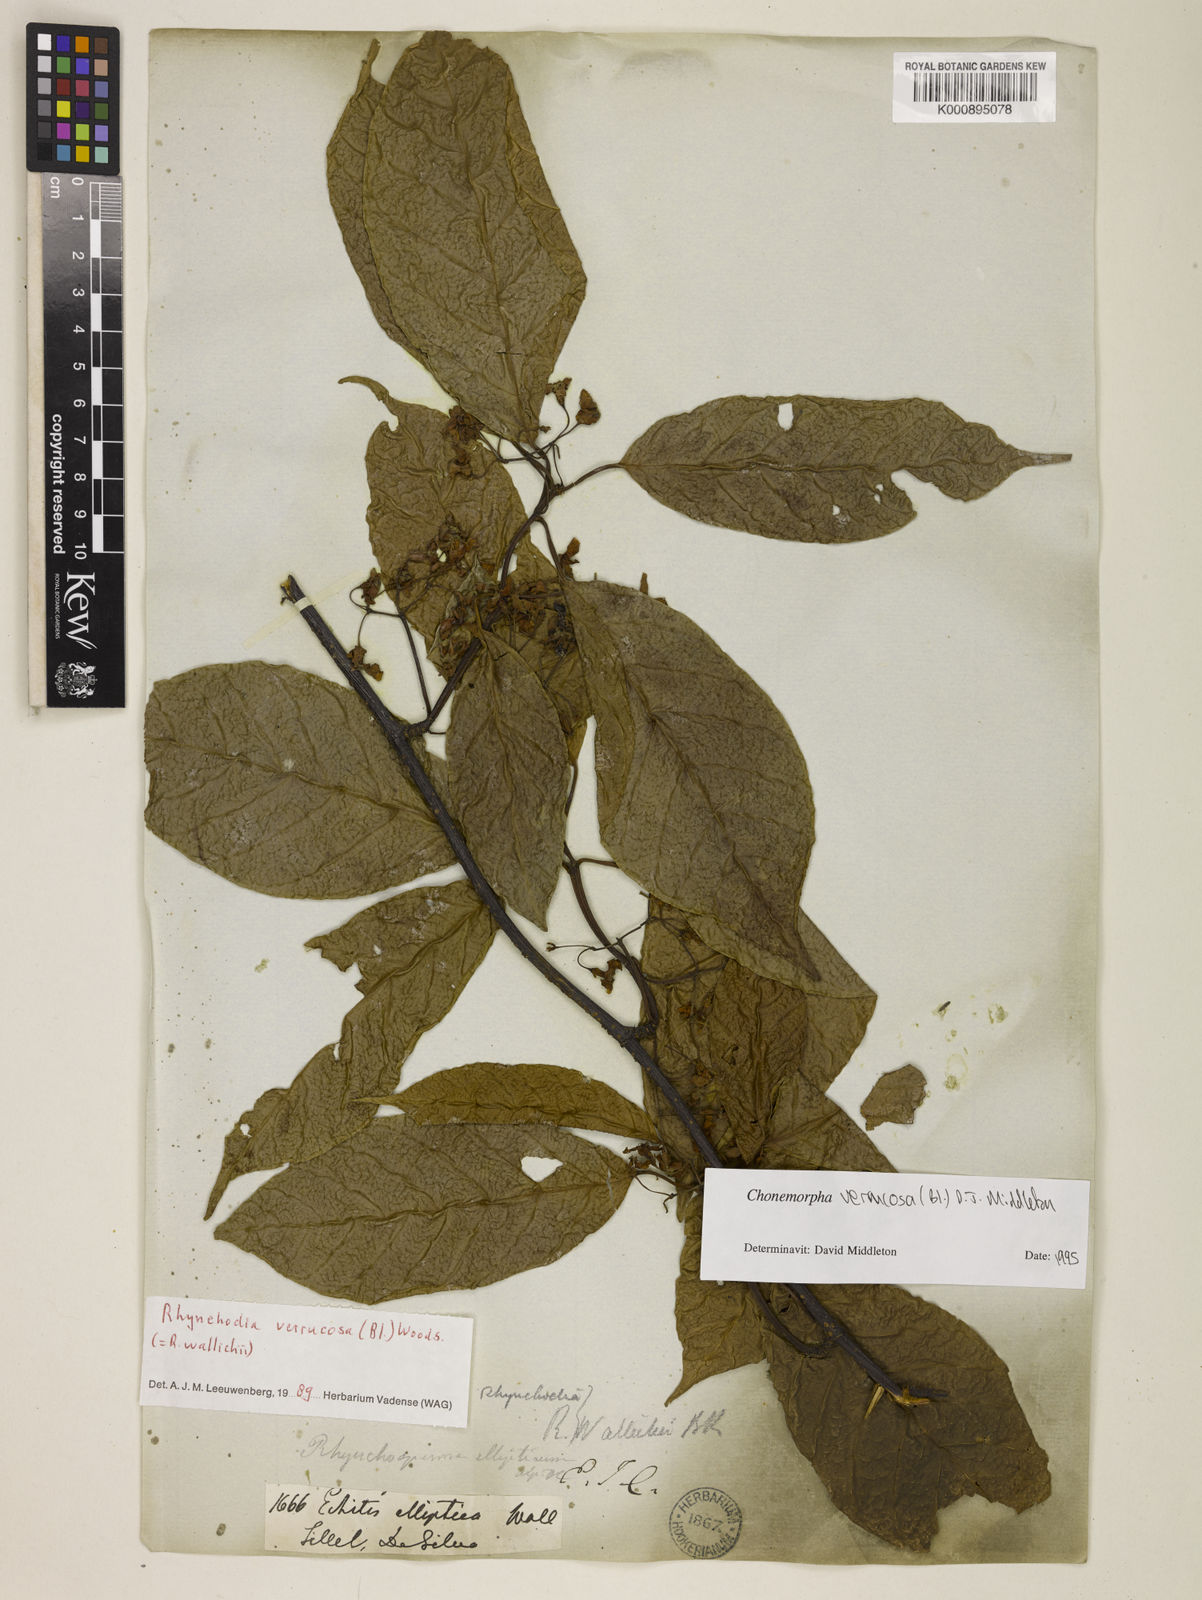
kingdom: Plantae
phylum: Tracheophyta
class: Magnoliopsida
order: Gentianales
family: Apocynaceae
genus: Chonemorpha
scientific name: Chonemorpha verrucosa
